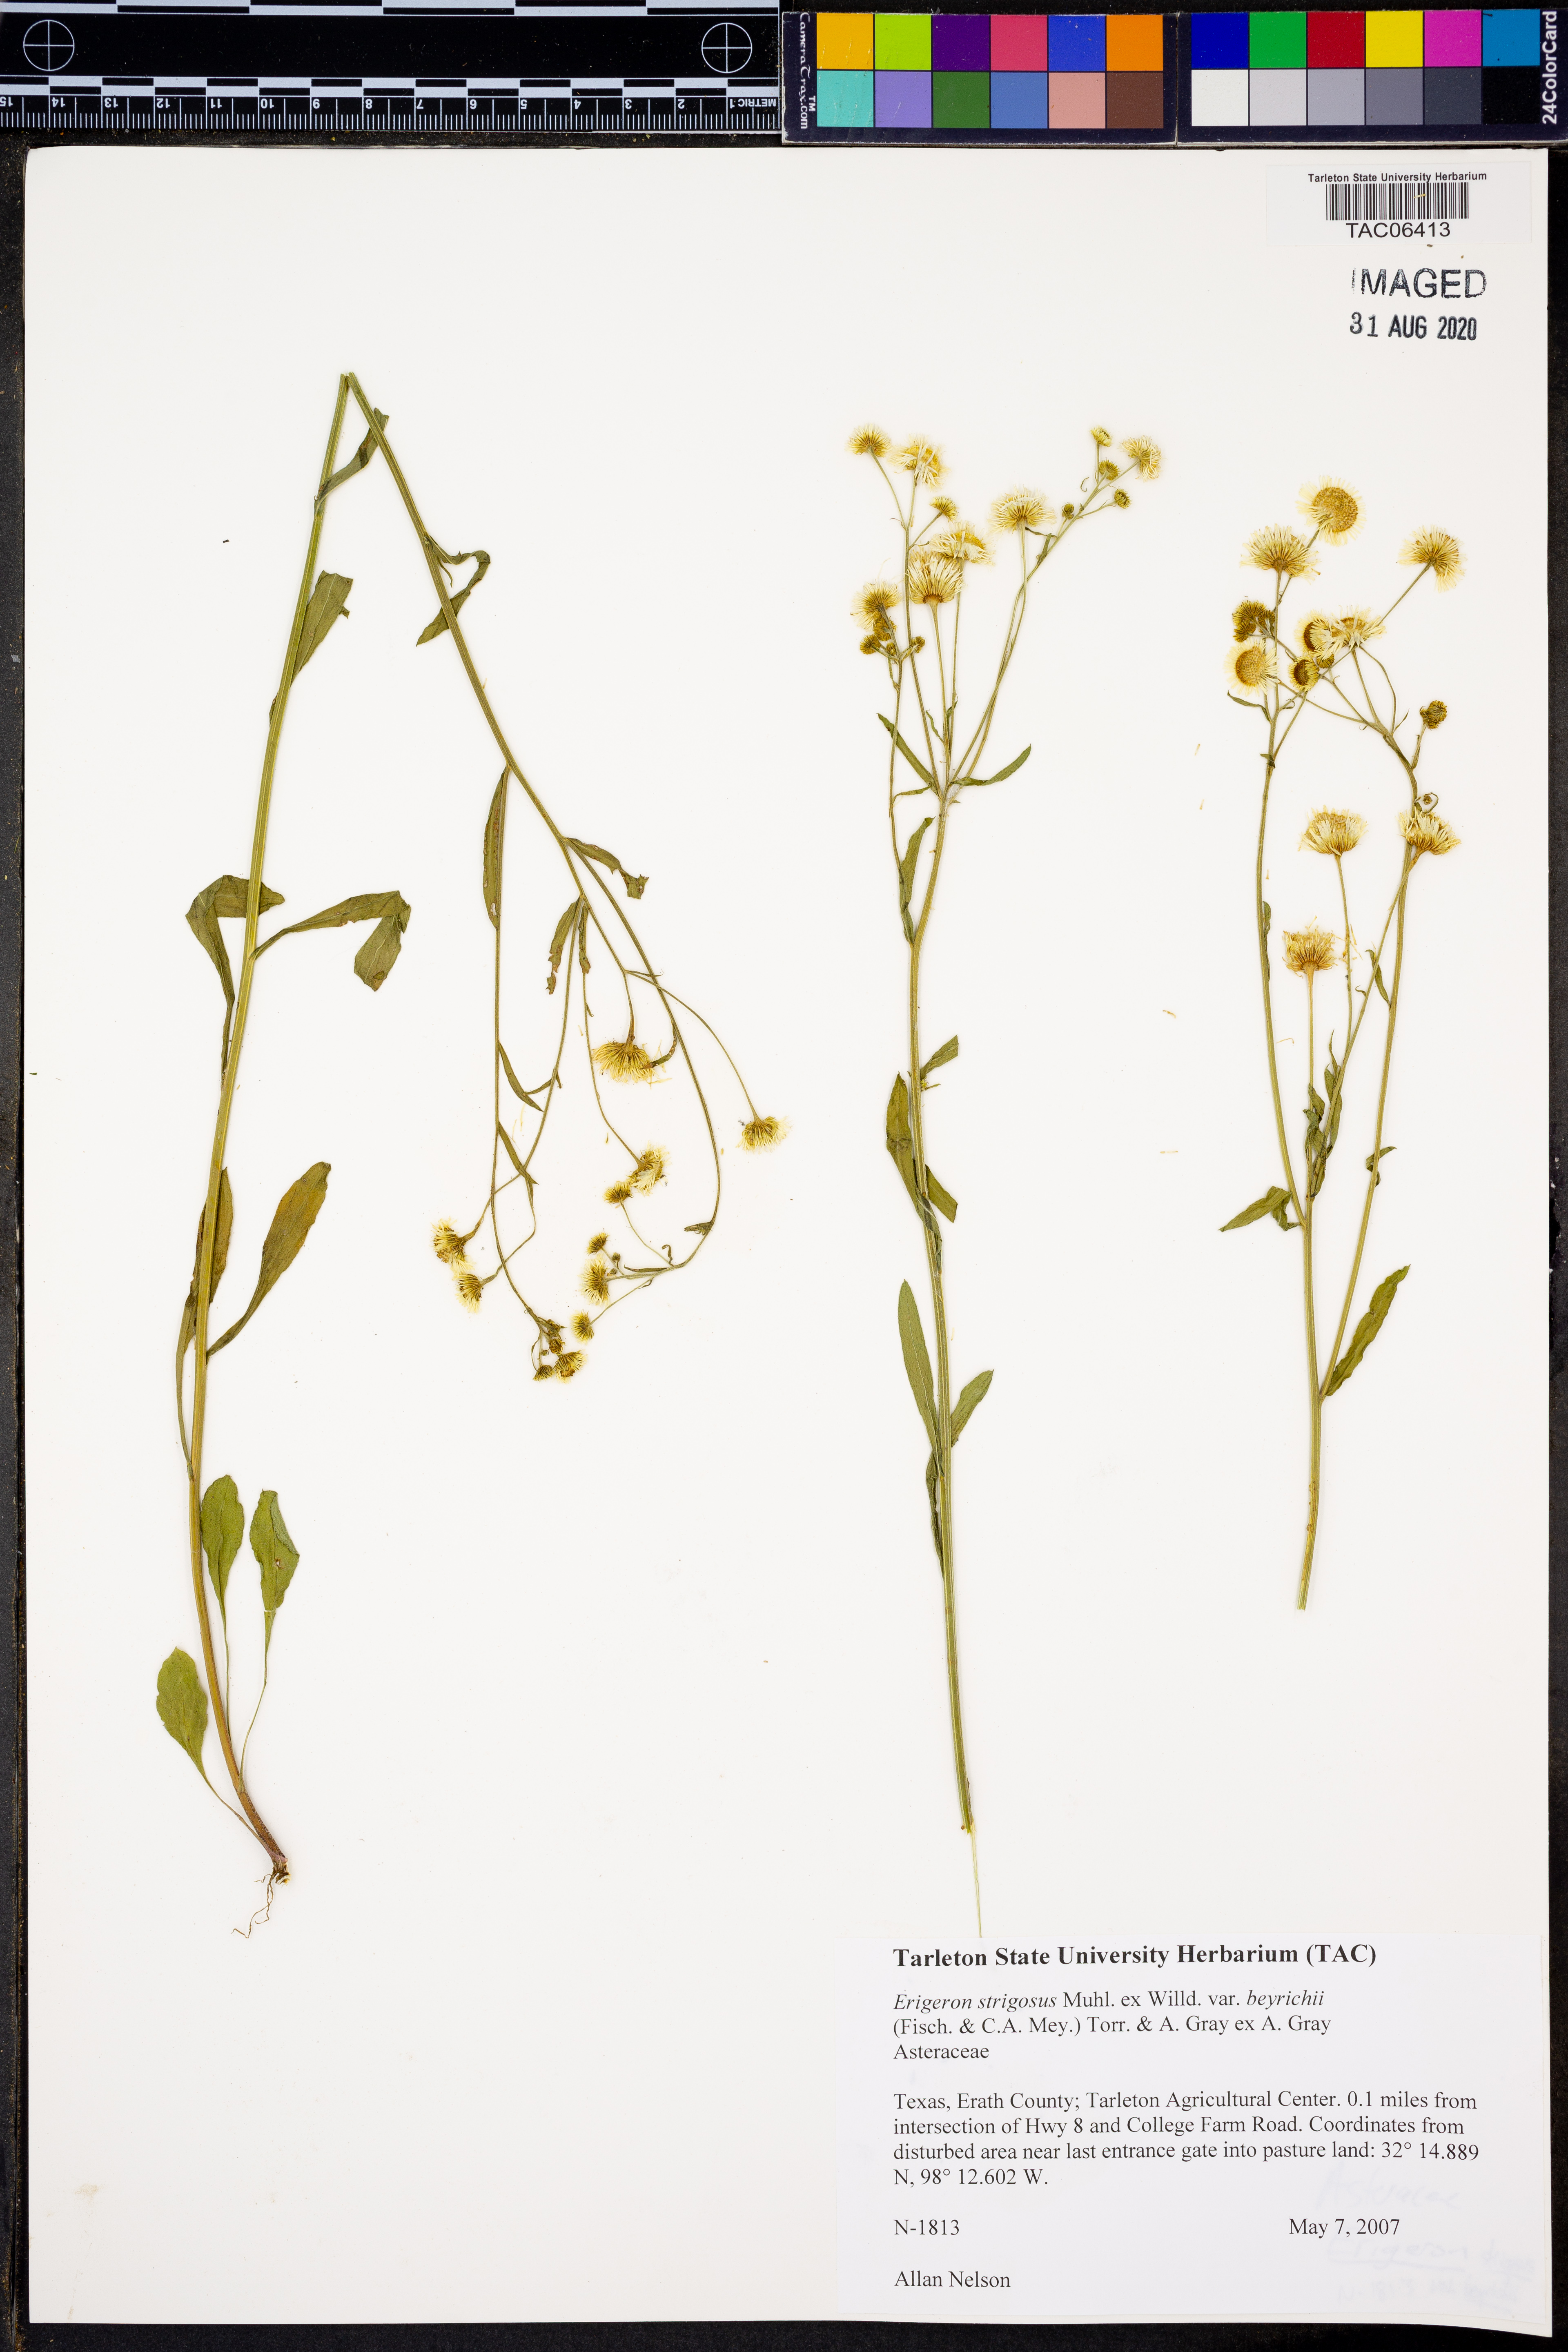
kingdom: Plantae
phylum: Tracheophyta
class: Magnoliopsida
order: Asterales
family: Asteraceae
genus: Erigeron
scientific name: Erigeron strigosus
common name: Common eastern fleabane
